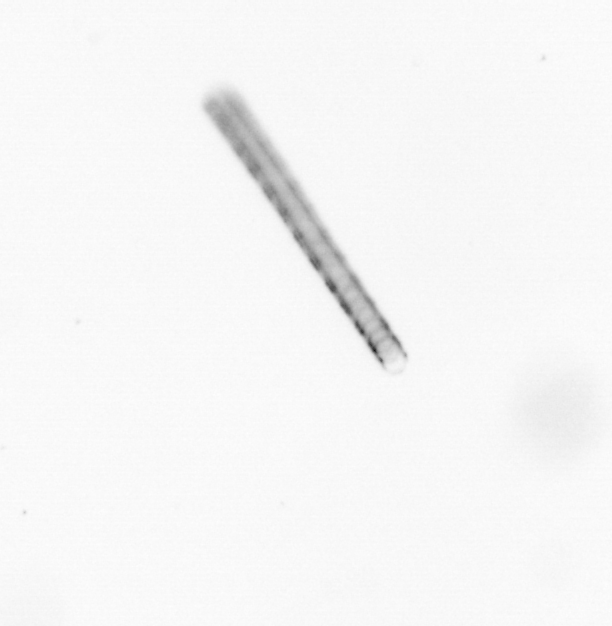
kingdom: Chromista
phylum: Ochrophyta
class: Bacillariophyceae
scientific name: Bacillariophyceae
